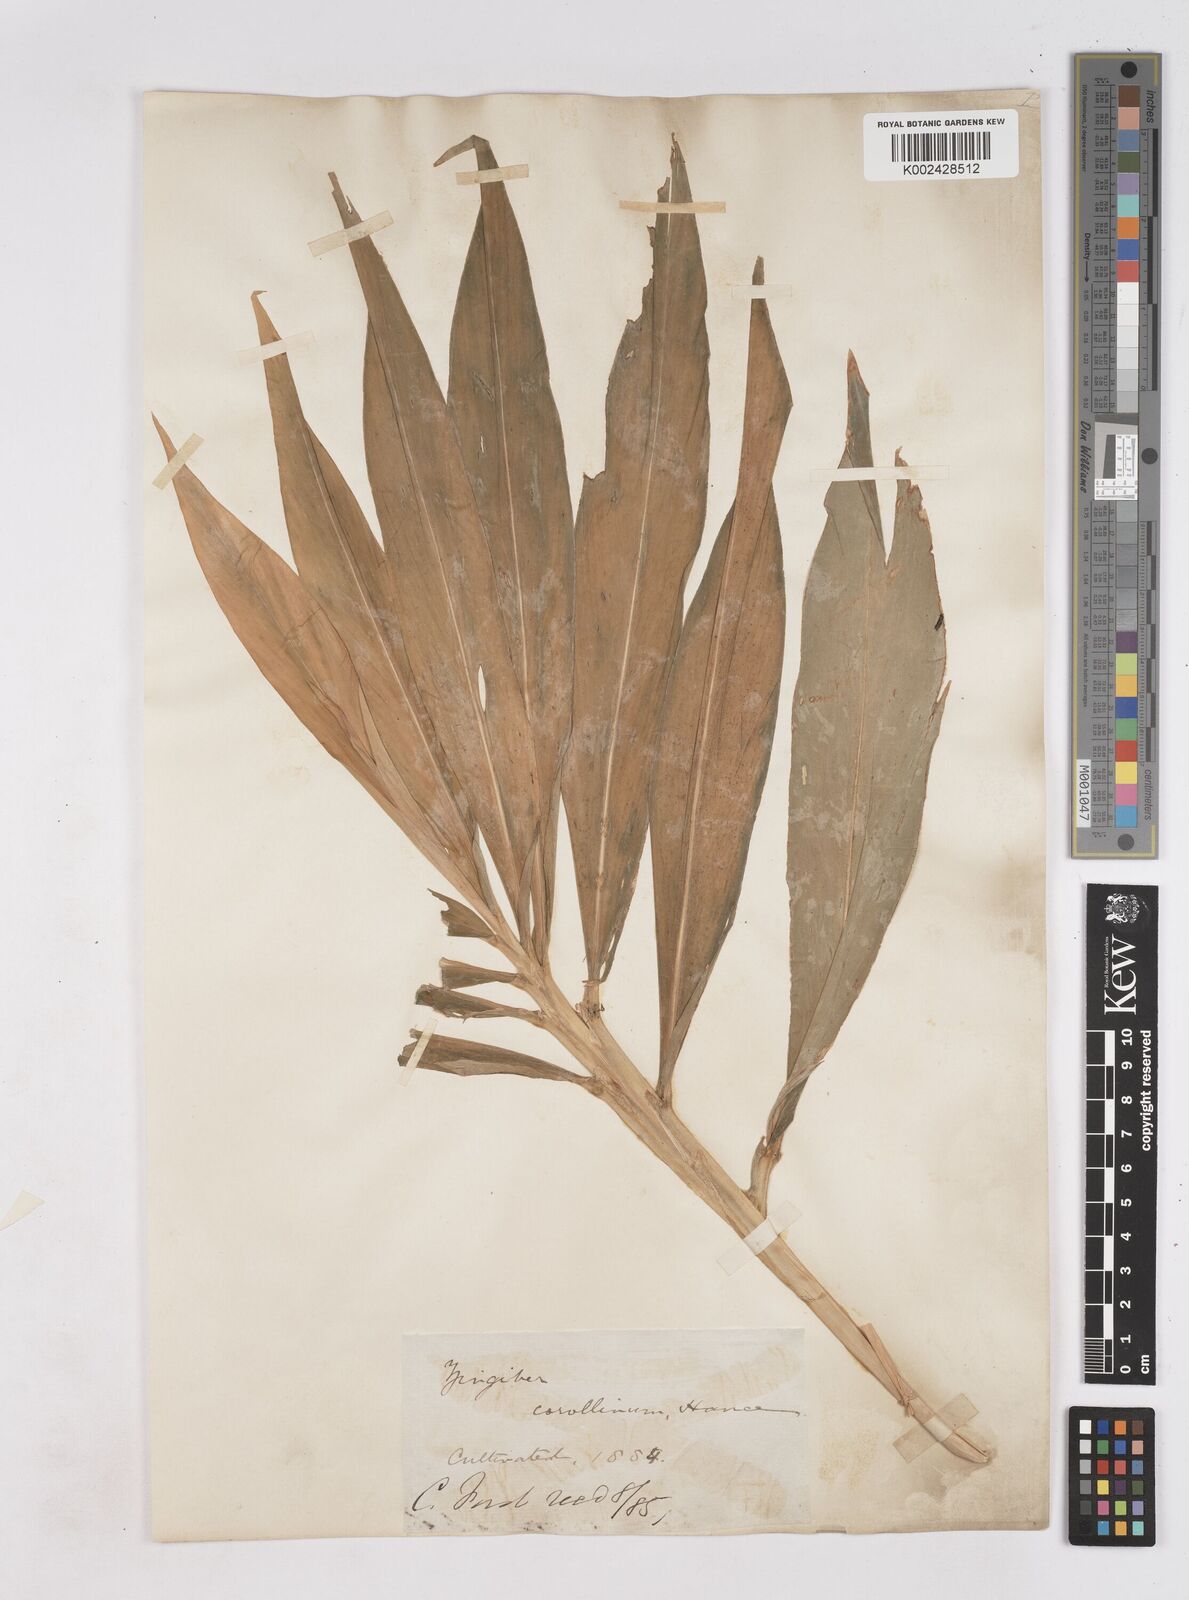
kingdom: Plantae
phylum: Tracheophyta
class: Liliopsida
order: Zingiberales
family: Zingiberaceae
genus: Zingiber
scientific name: Zingiber corallinum
